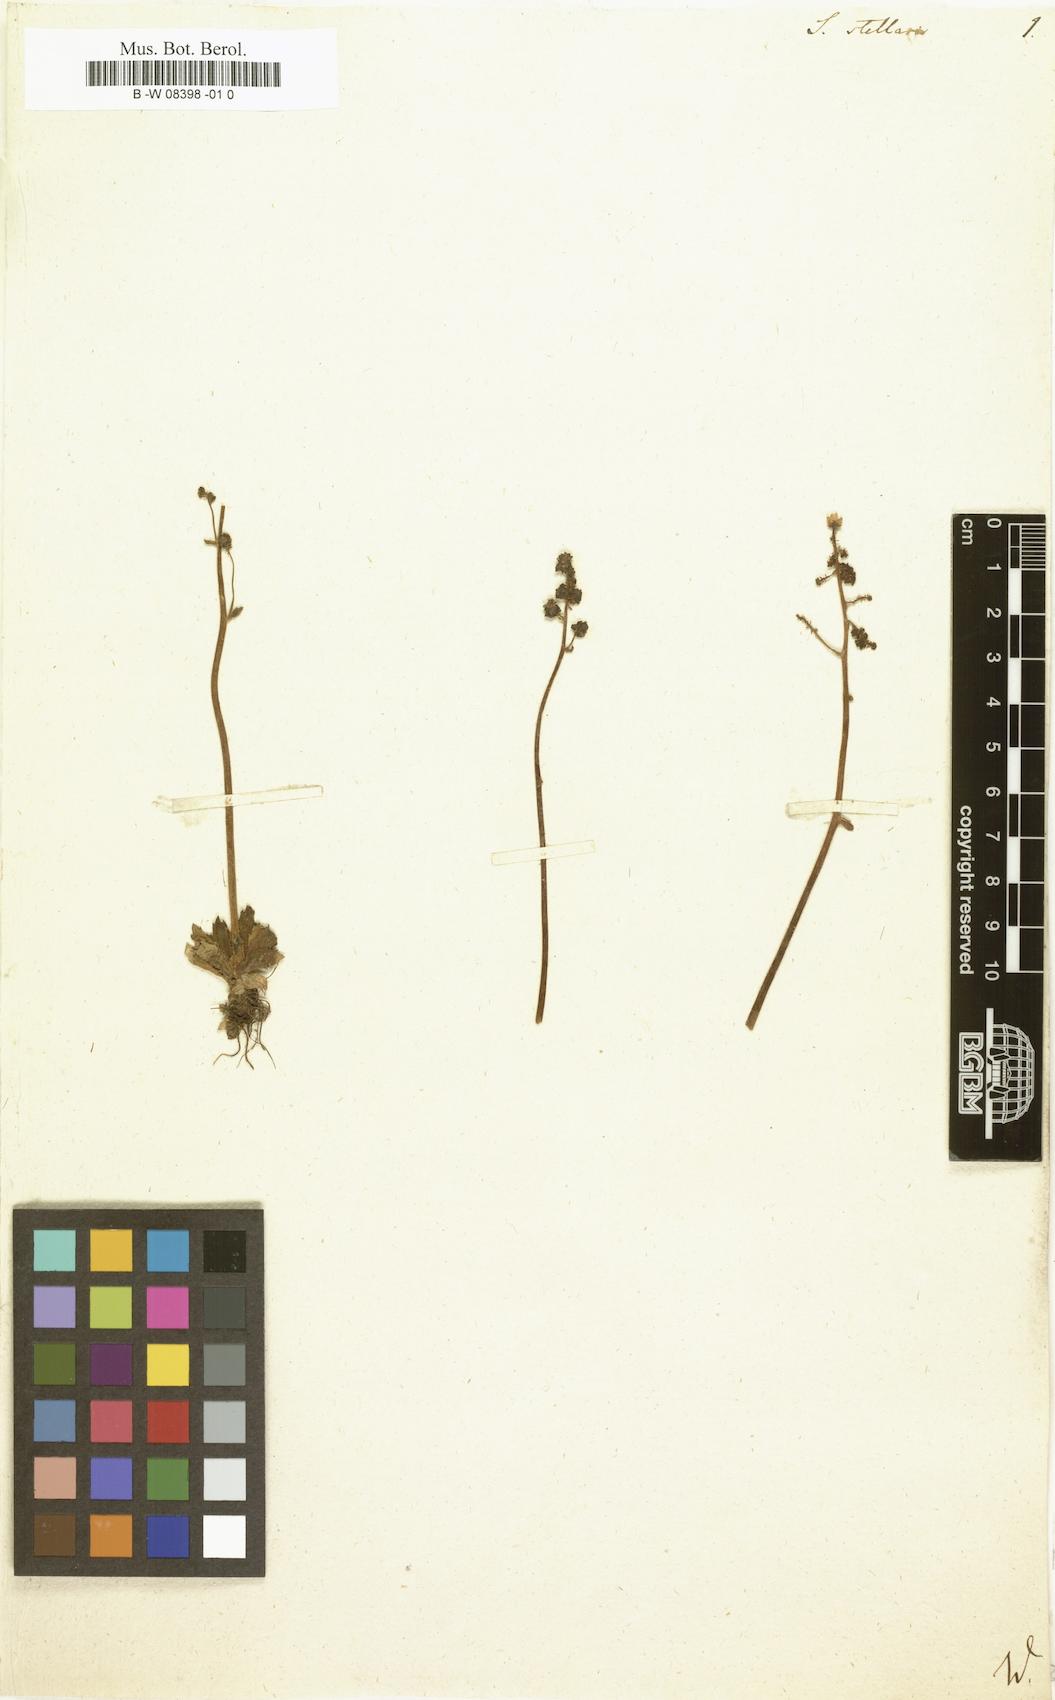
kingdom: Plantae
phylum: Tracheophyta
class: Magnoliopsida
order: Saxifragales
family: Saxifragaceae
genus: Micranthes
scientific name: Micranthes stellaris
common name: Starry saxifrage
